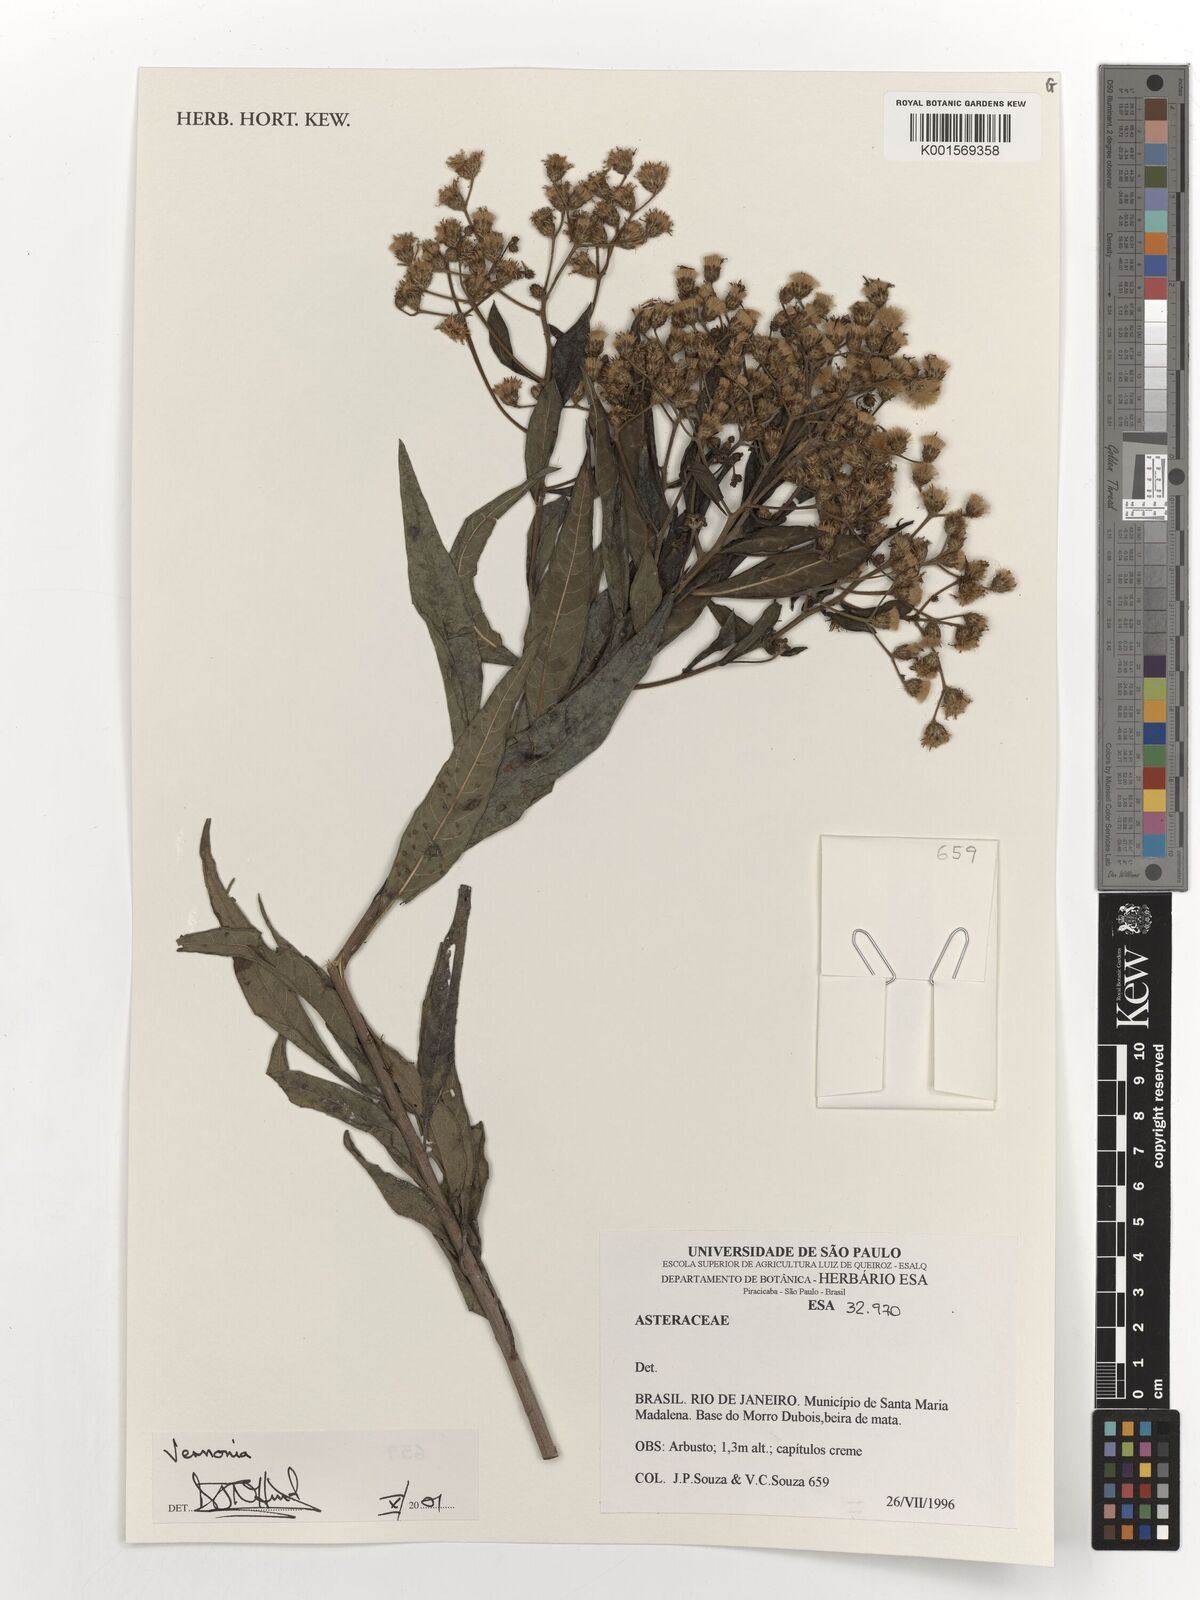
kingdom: Plantae
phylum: Tracheophyta
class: Magnoliopsida
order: Asterales
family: Asteraceae
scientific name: Asteraceae
